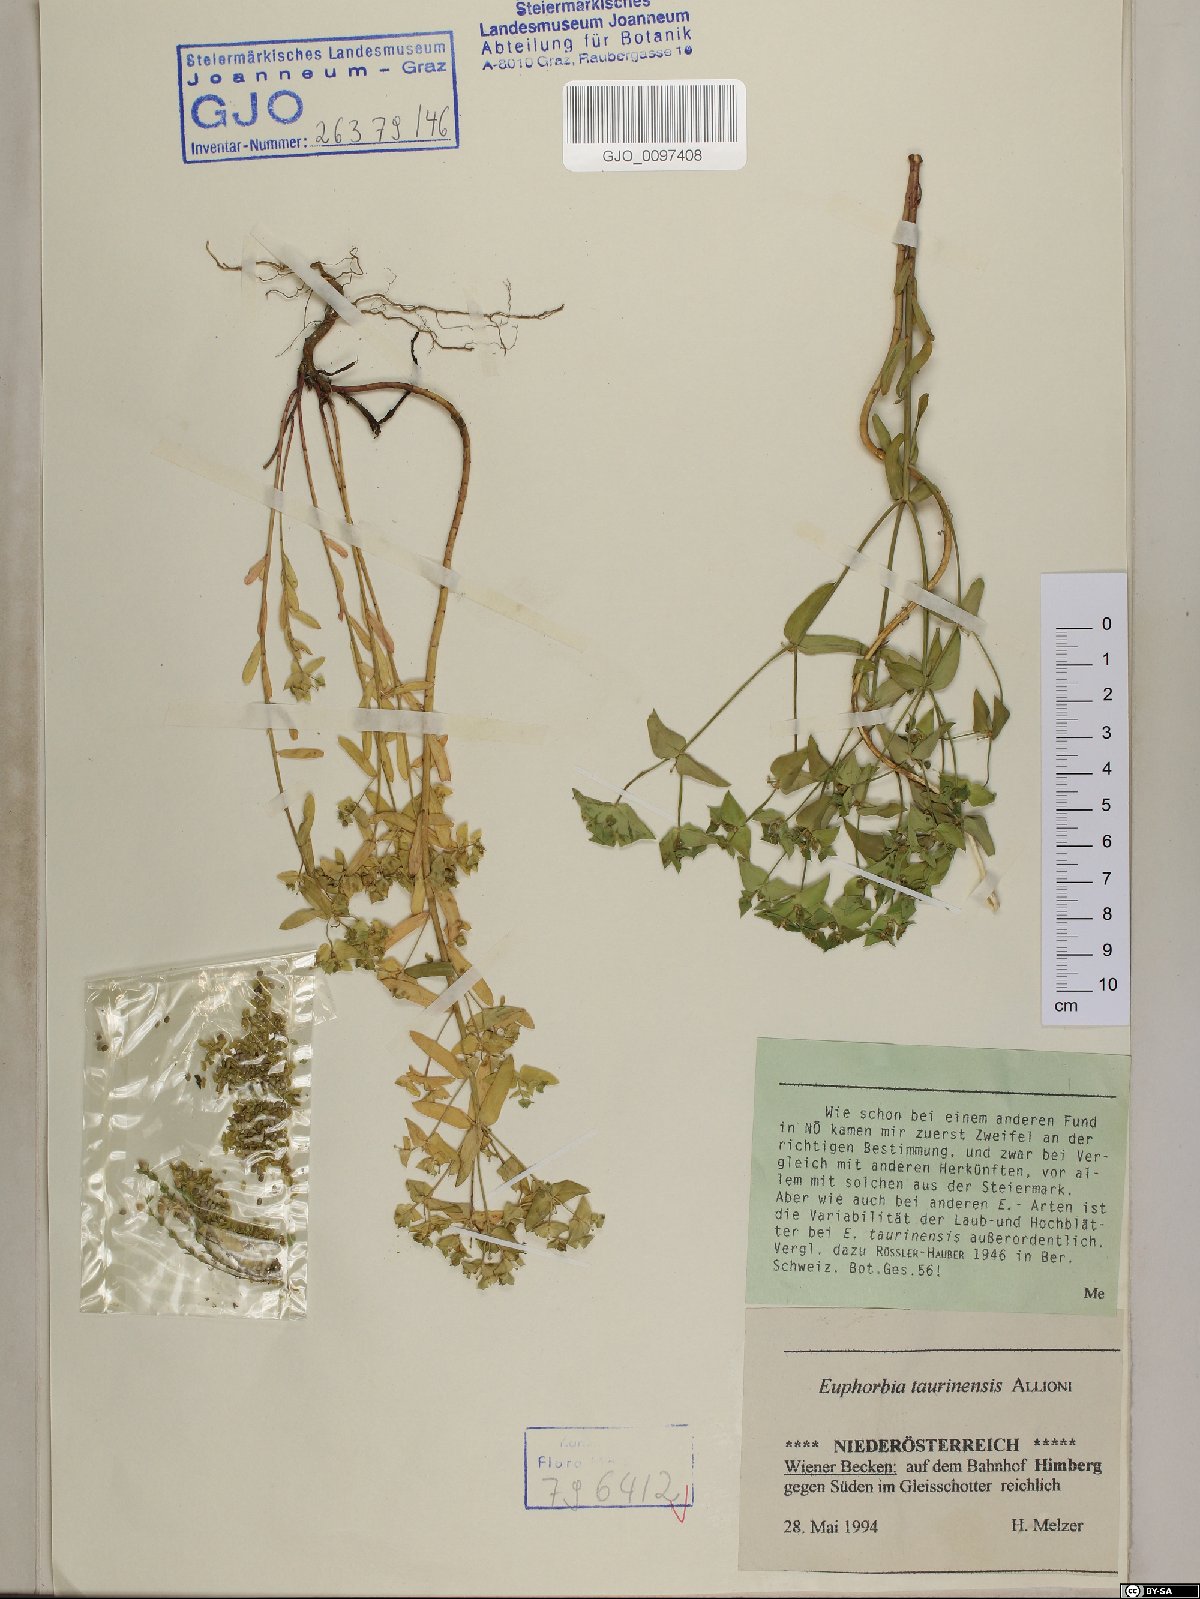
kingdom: Plantae
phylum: Tracheophyta
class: Magnoliopsida
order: Malpighiales
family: Euphorbiaceae
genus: Euphorbia
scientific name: Euphorbia taurinensis
